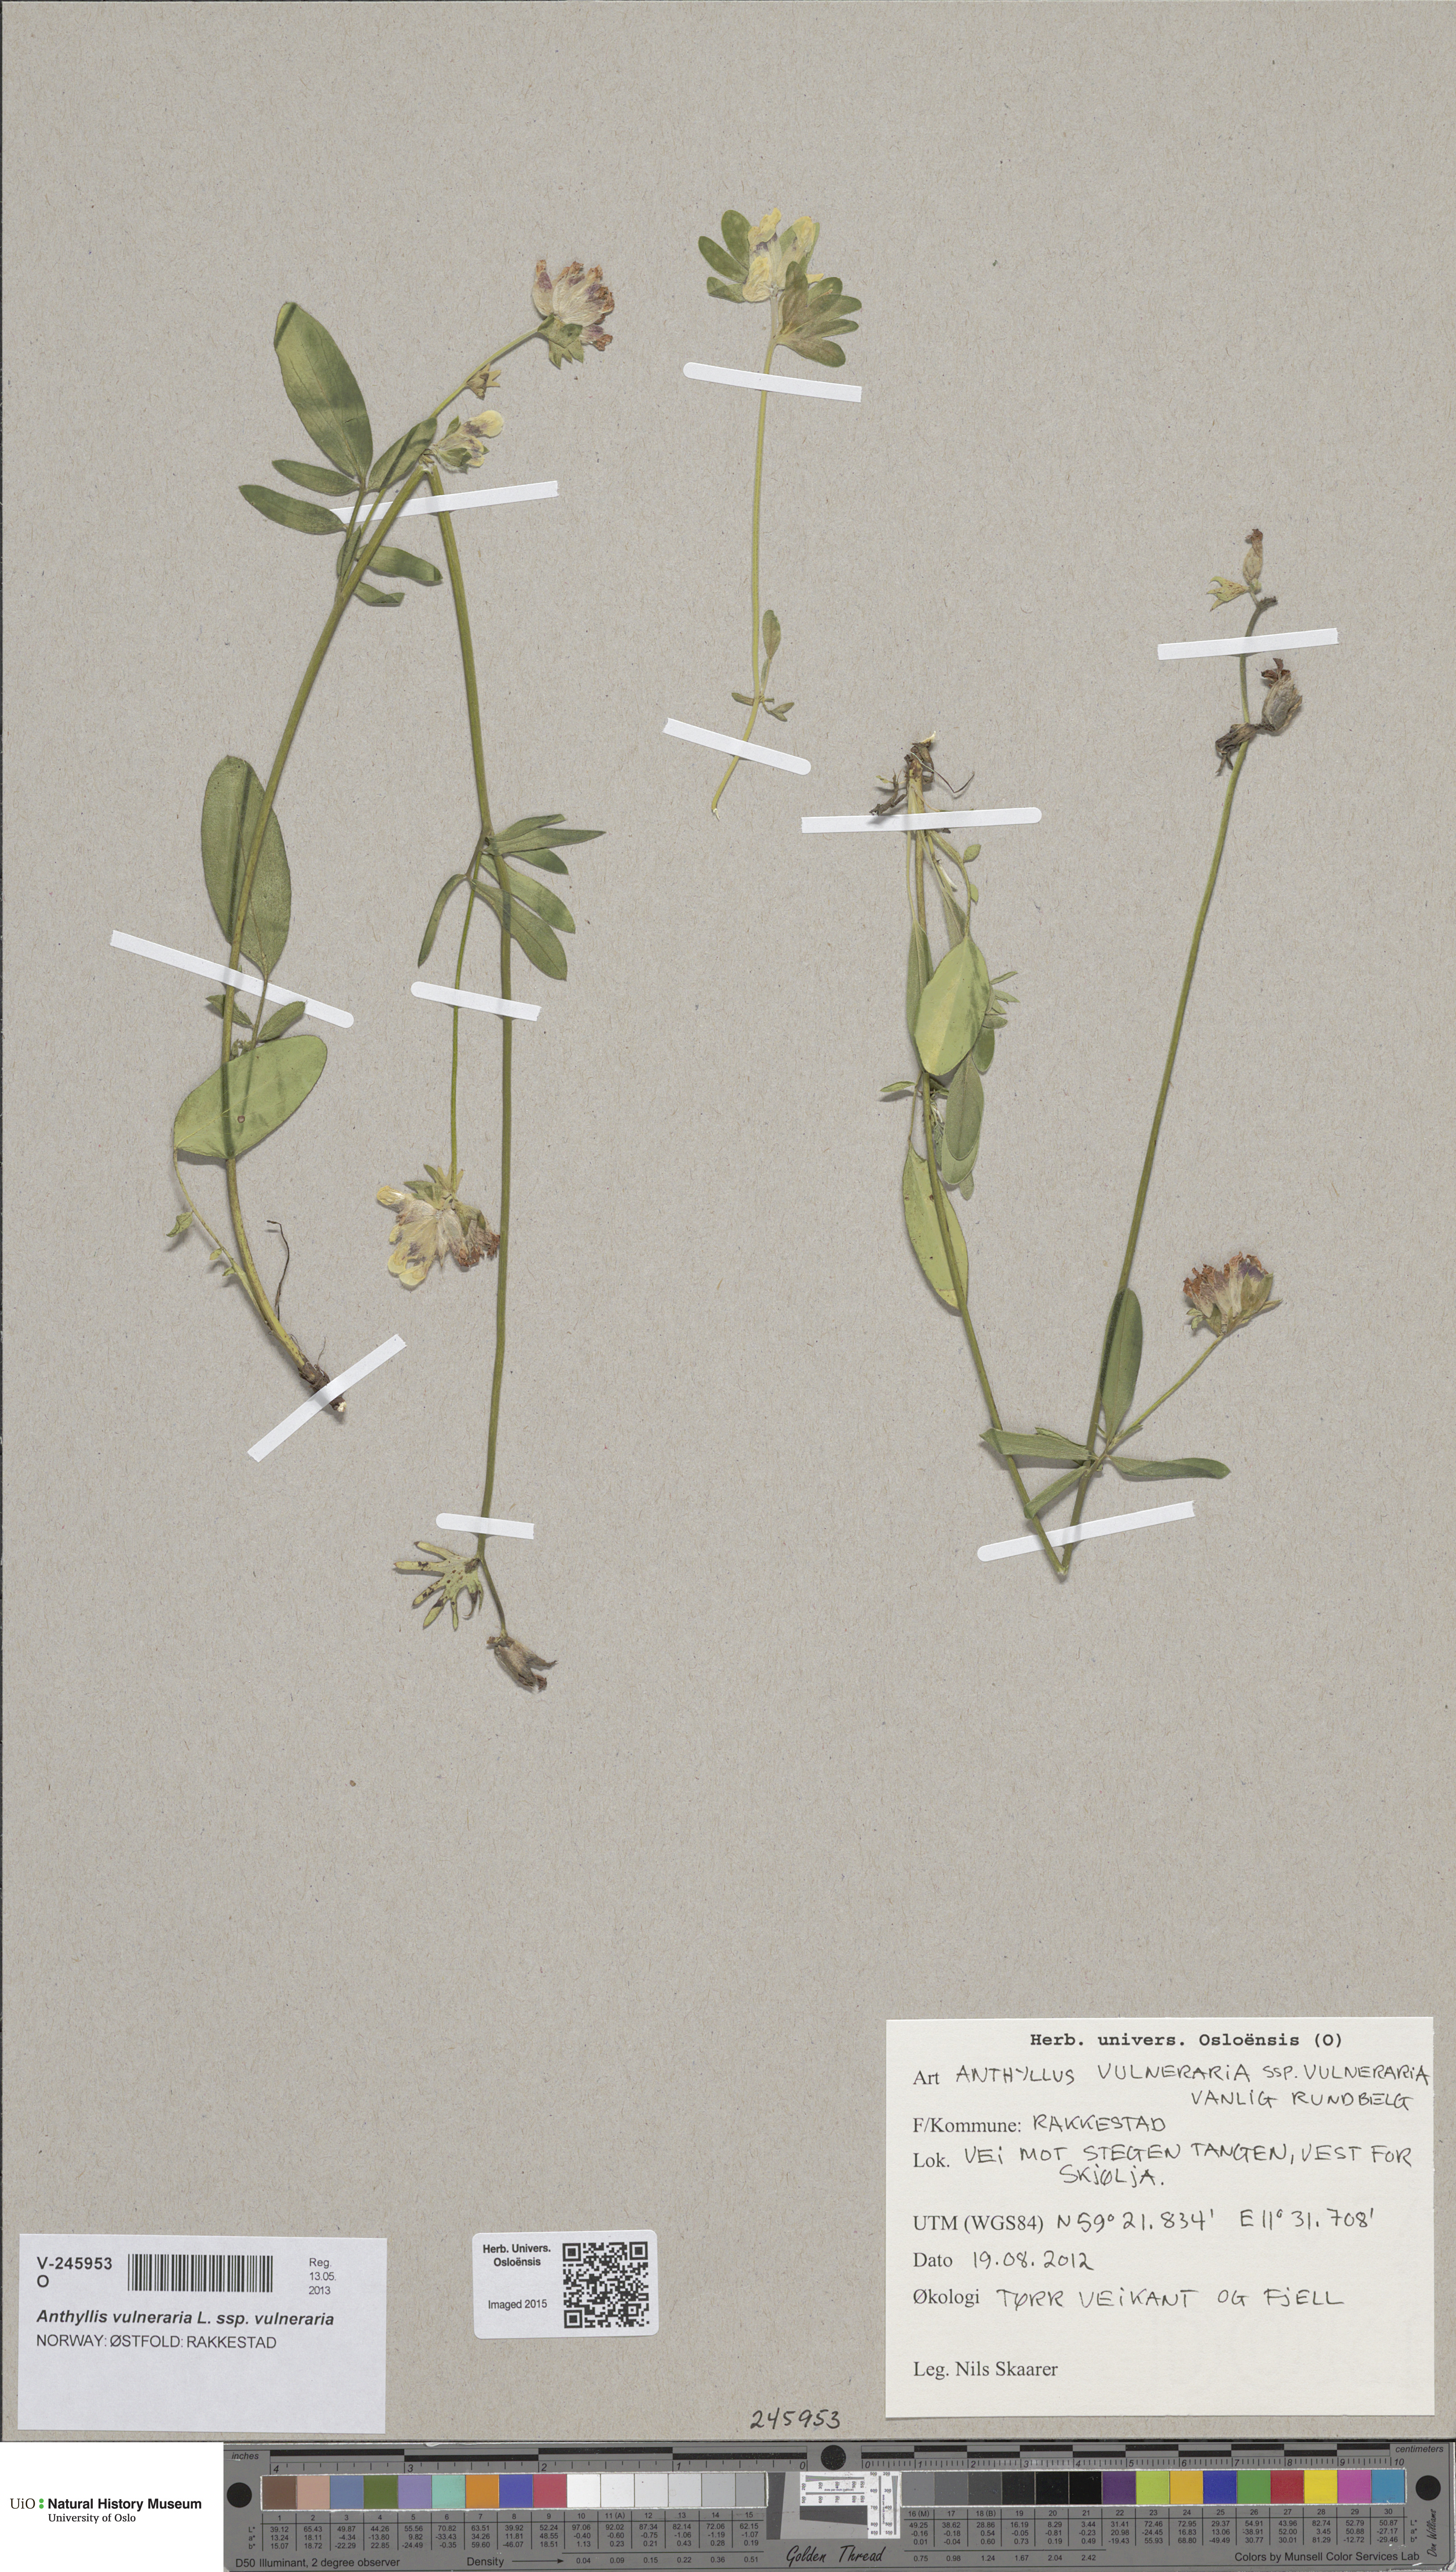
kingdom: Plantae
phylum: Tracheophyta
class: Magnoliopsida
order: Fabales
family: Fabaceae
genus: Anthyllis
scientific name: Anthyllis vulneraria
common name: Kidney vetch
